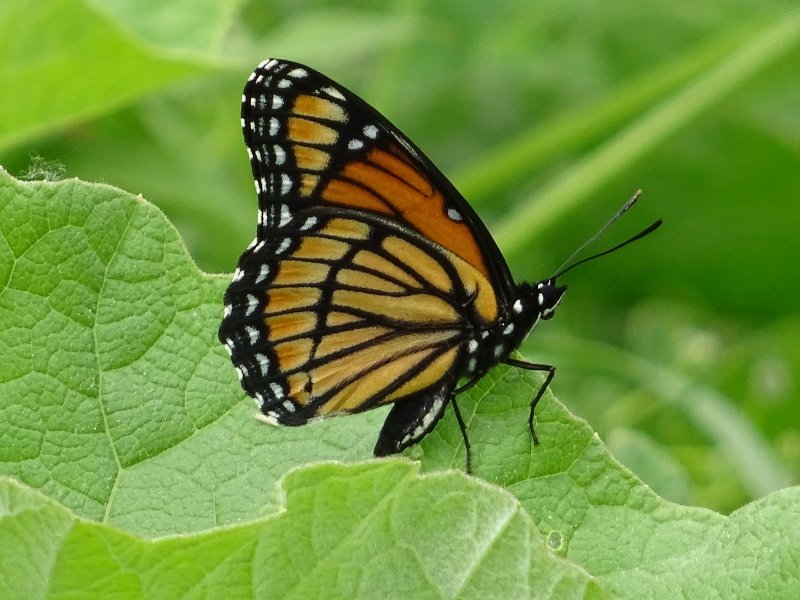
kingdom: Animalia
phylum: Arthropoda
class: Insecta
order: Lepidoptera
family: Nymphalidae
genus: Limenitis
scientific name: Limenitis archippus
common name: Viceroy
